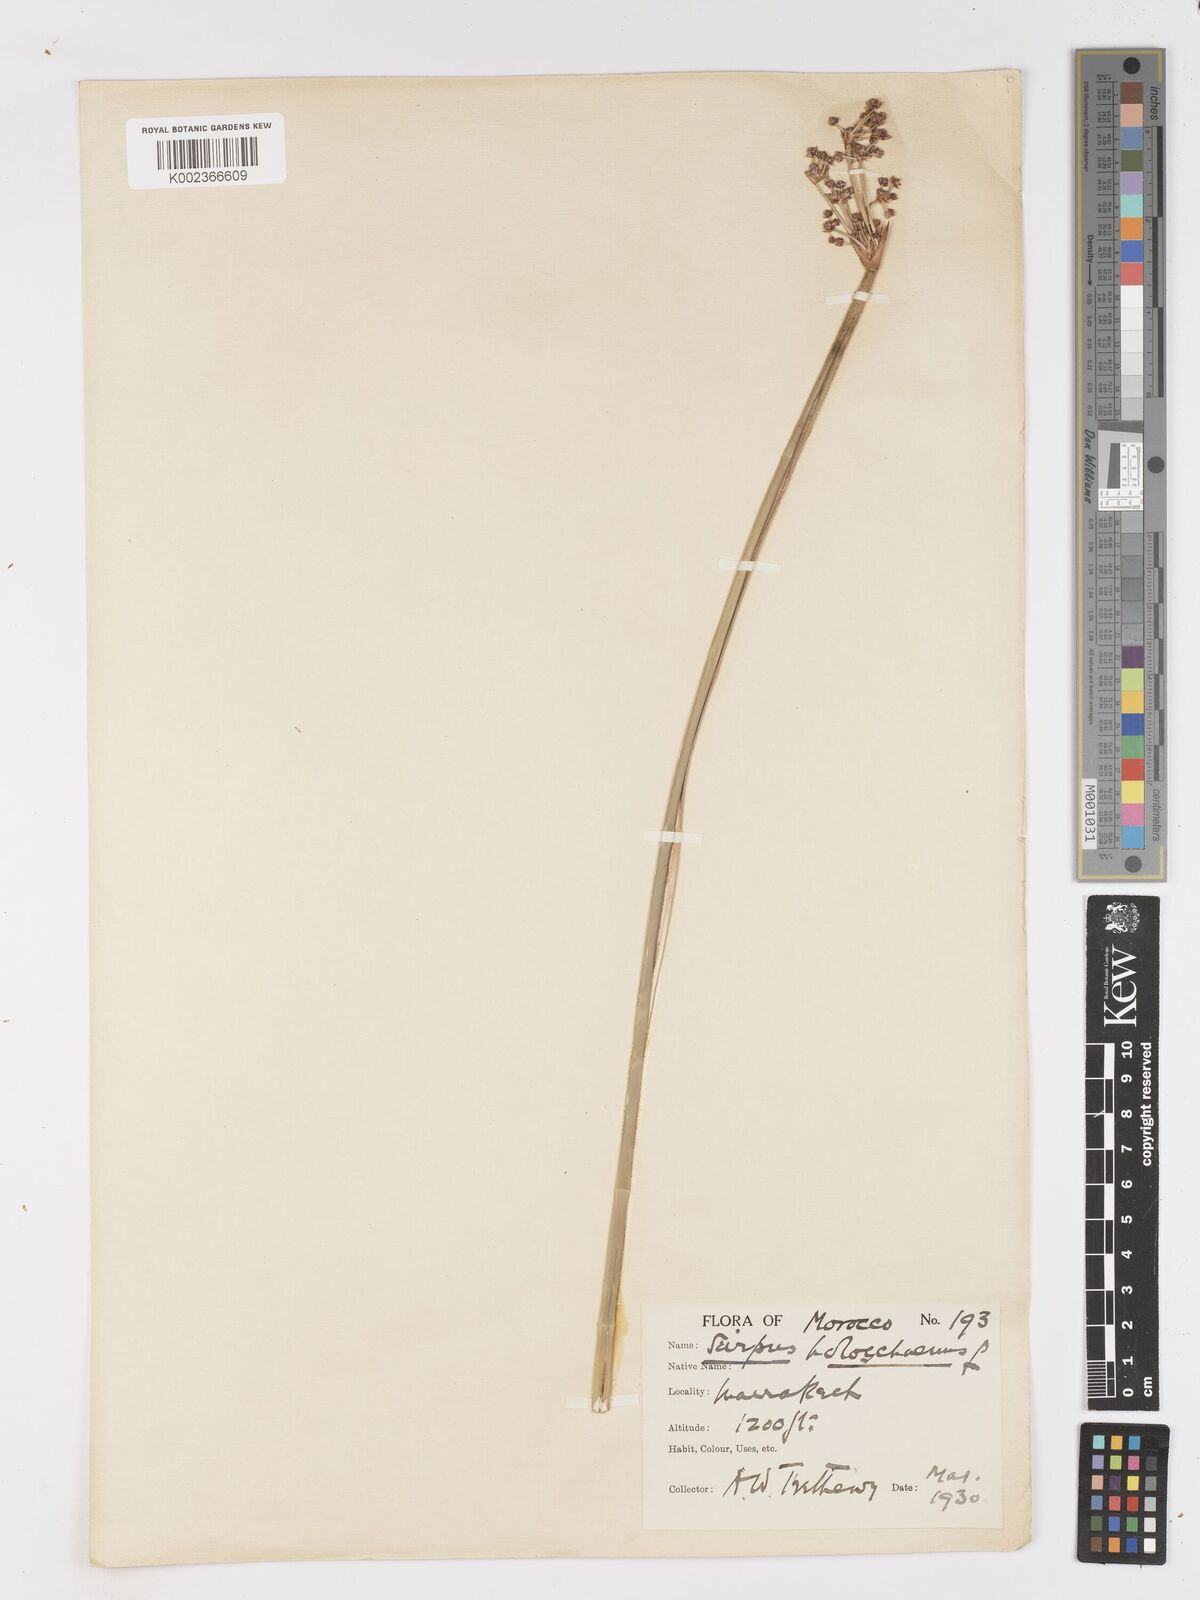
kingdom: Plantae
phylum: Tracheophyta
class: Liliopsida
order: Poales
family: Cyperaceae
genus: Scirpoides
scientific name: Scirpoides holoschoenus
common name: Round-headed club-rush
